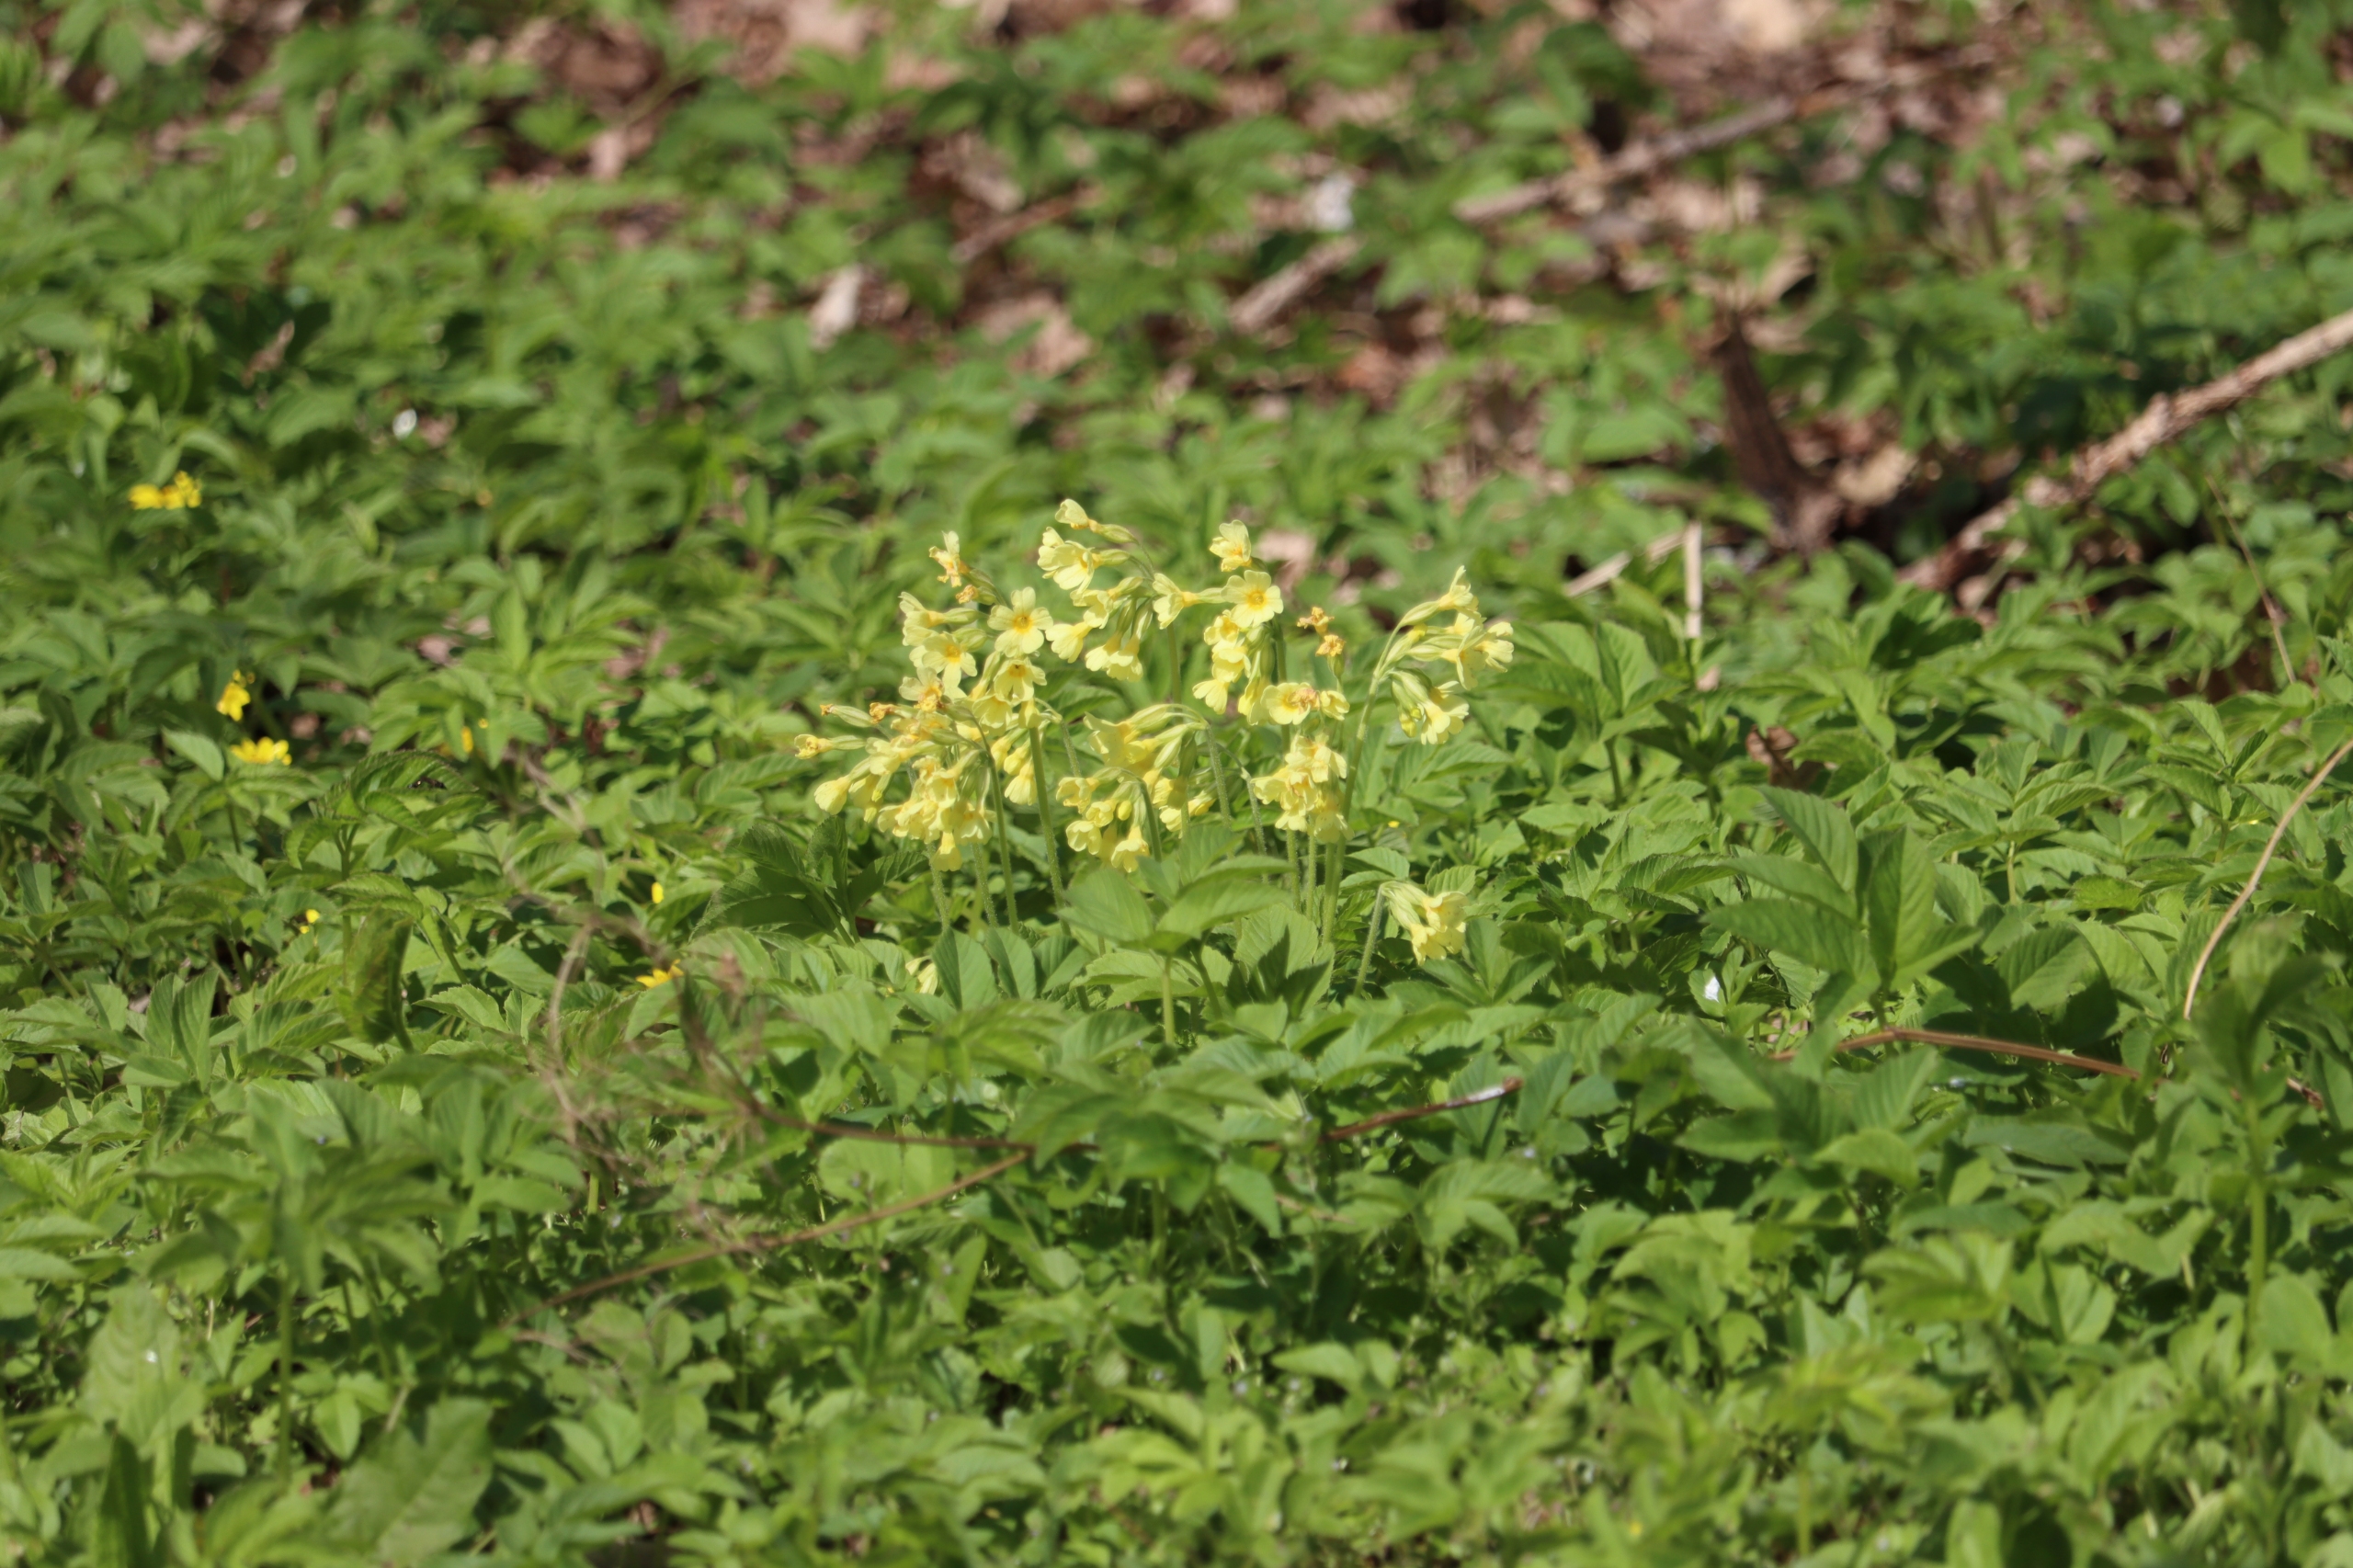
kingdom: Plantae
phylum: Tracheophyta
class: Magnoliopsida
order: Ericales
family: Primulaceae
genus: Primula
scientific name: Primula elatior
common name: Fladkravet kodriver
